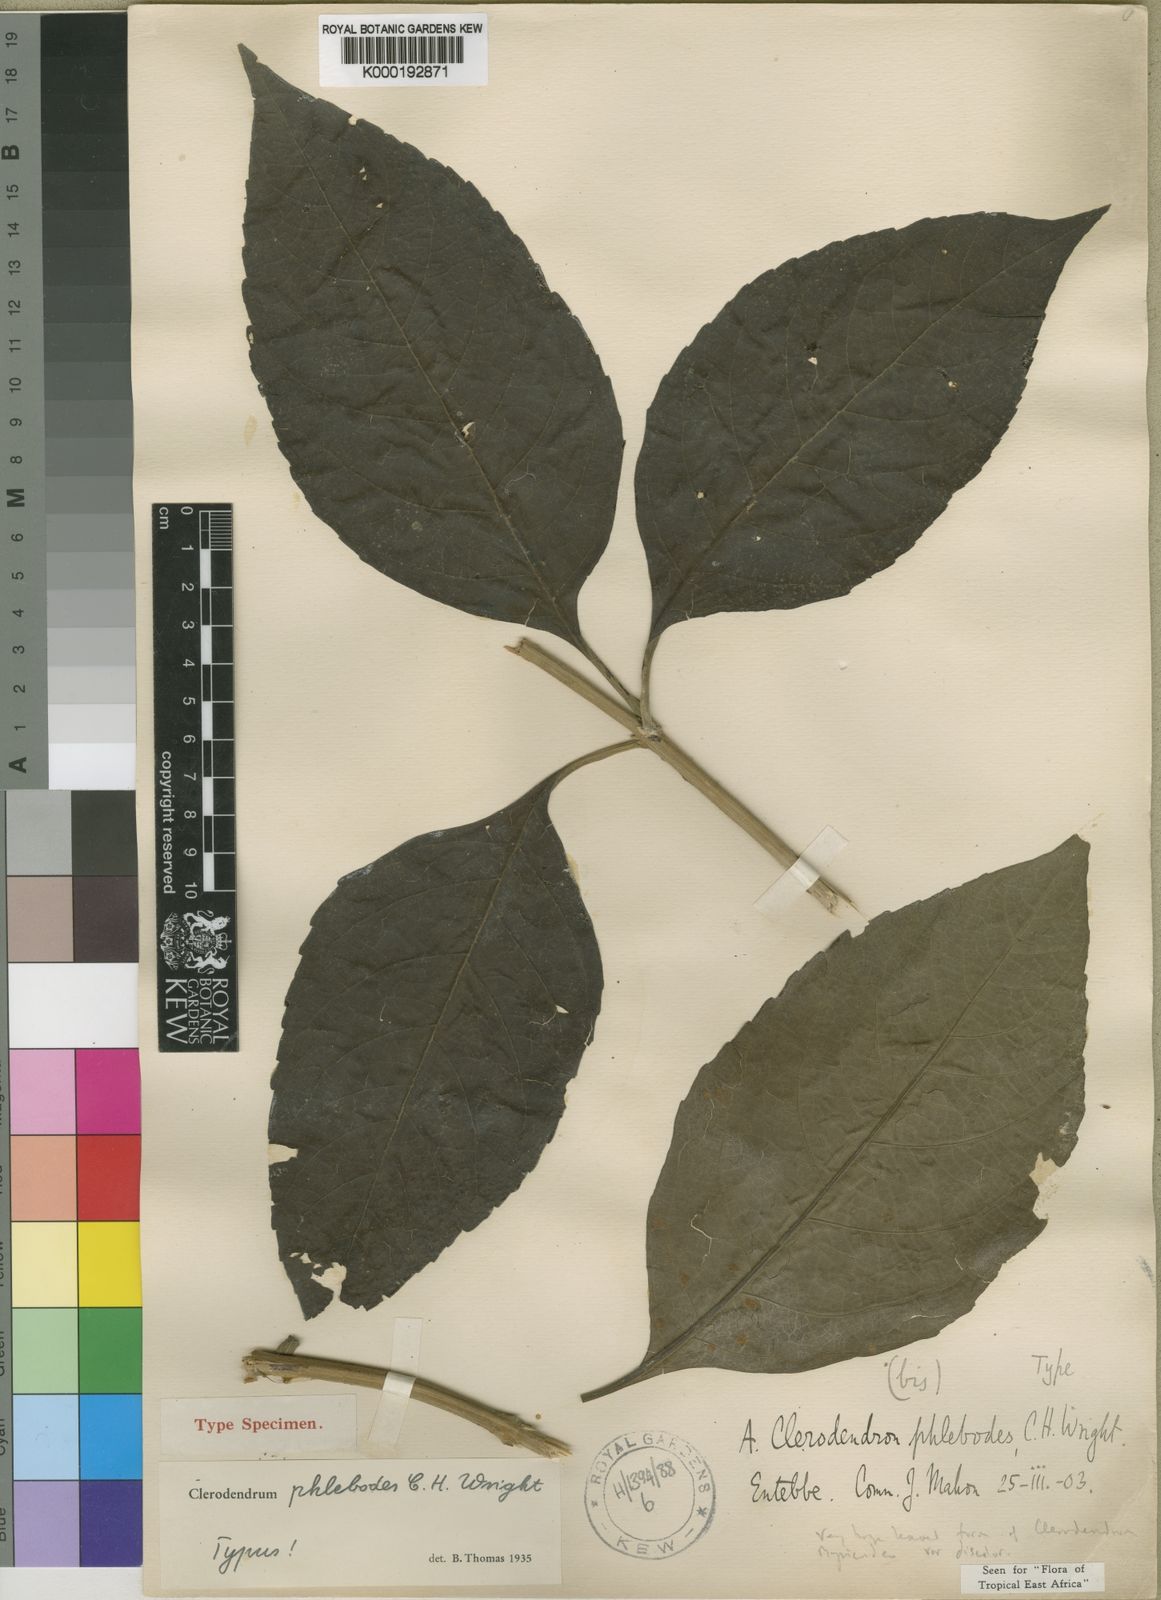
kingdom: Plantae
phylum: Tracheophyta
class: Magnoliopsida
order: Lamiales
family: Lamiaceae
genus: Rotheca
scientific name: Rotheca myricoides
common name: Cats-whiskers
